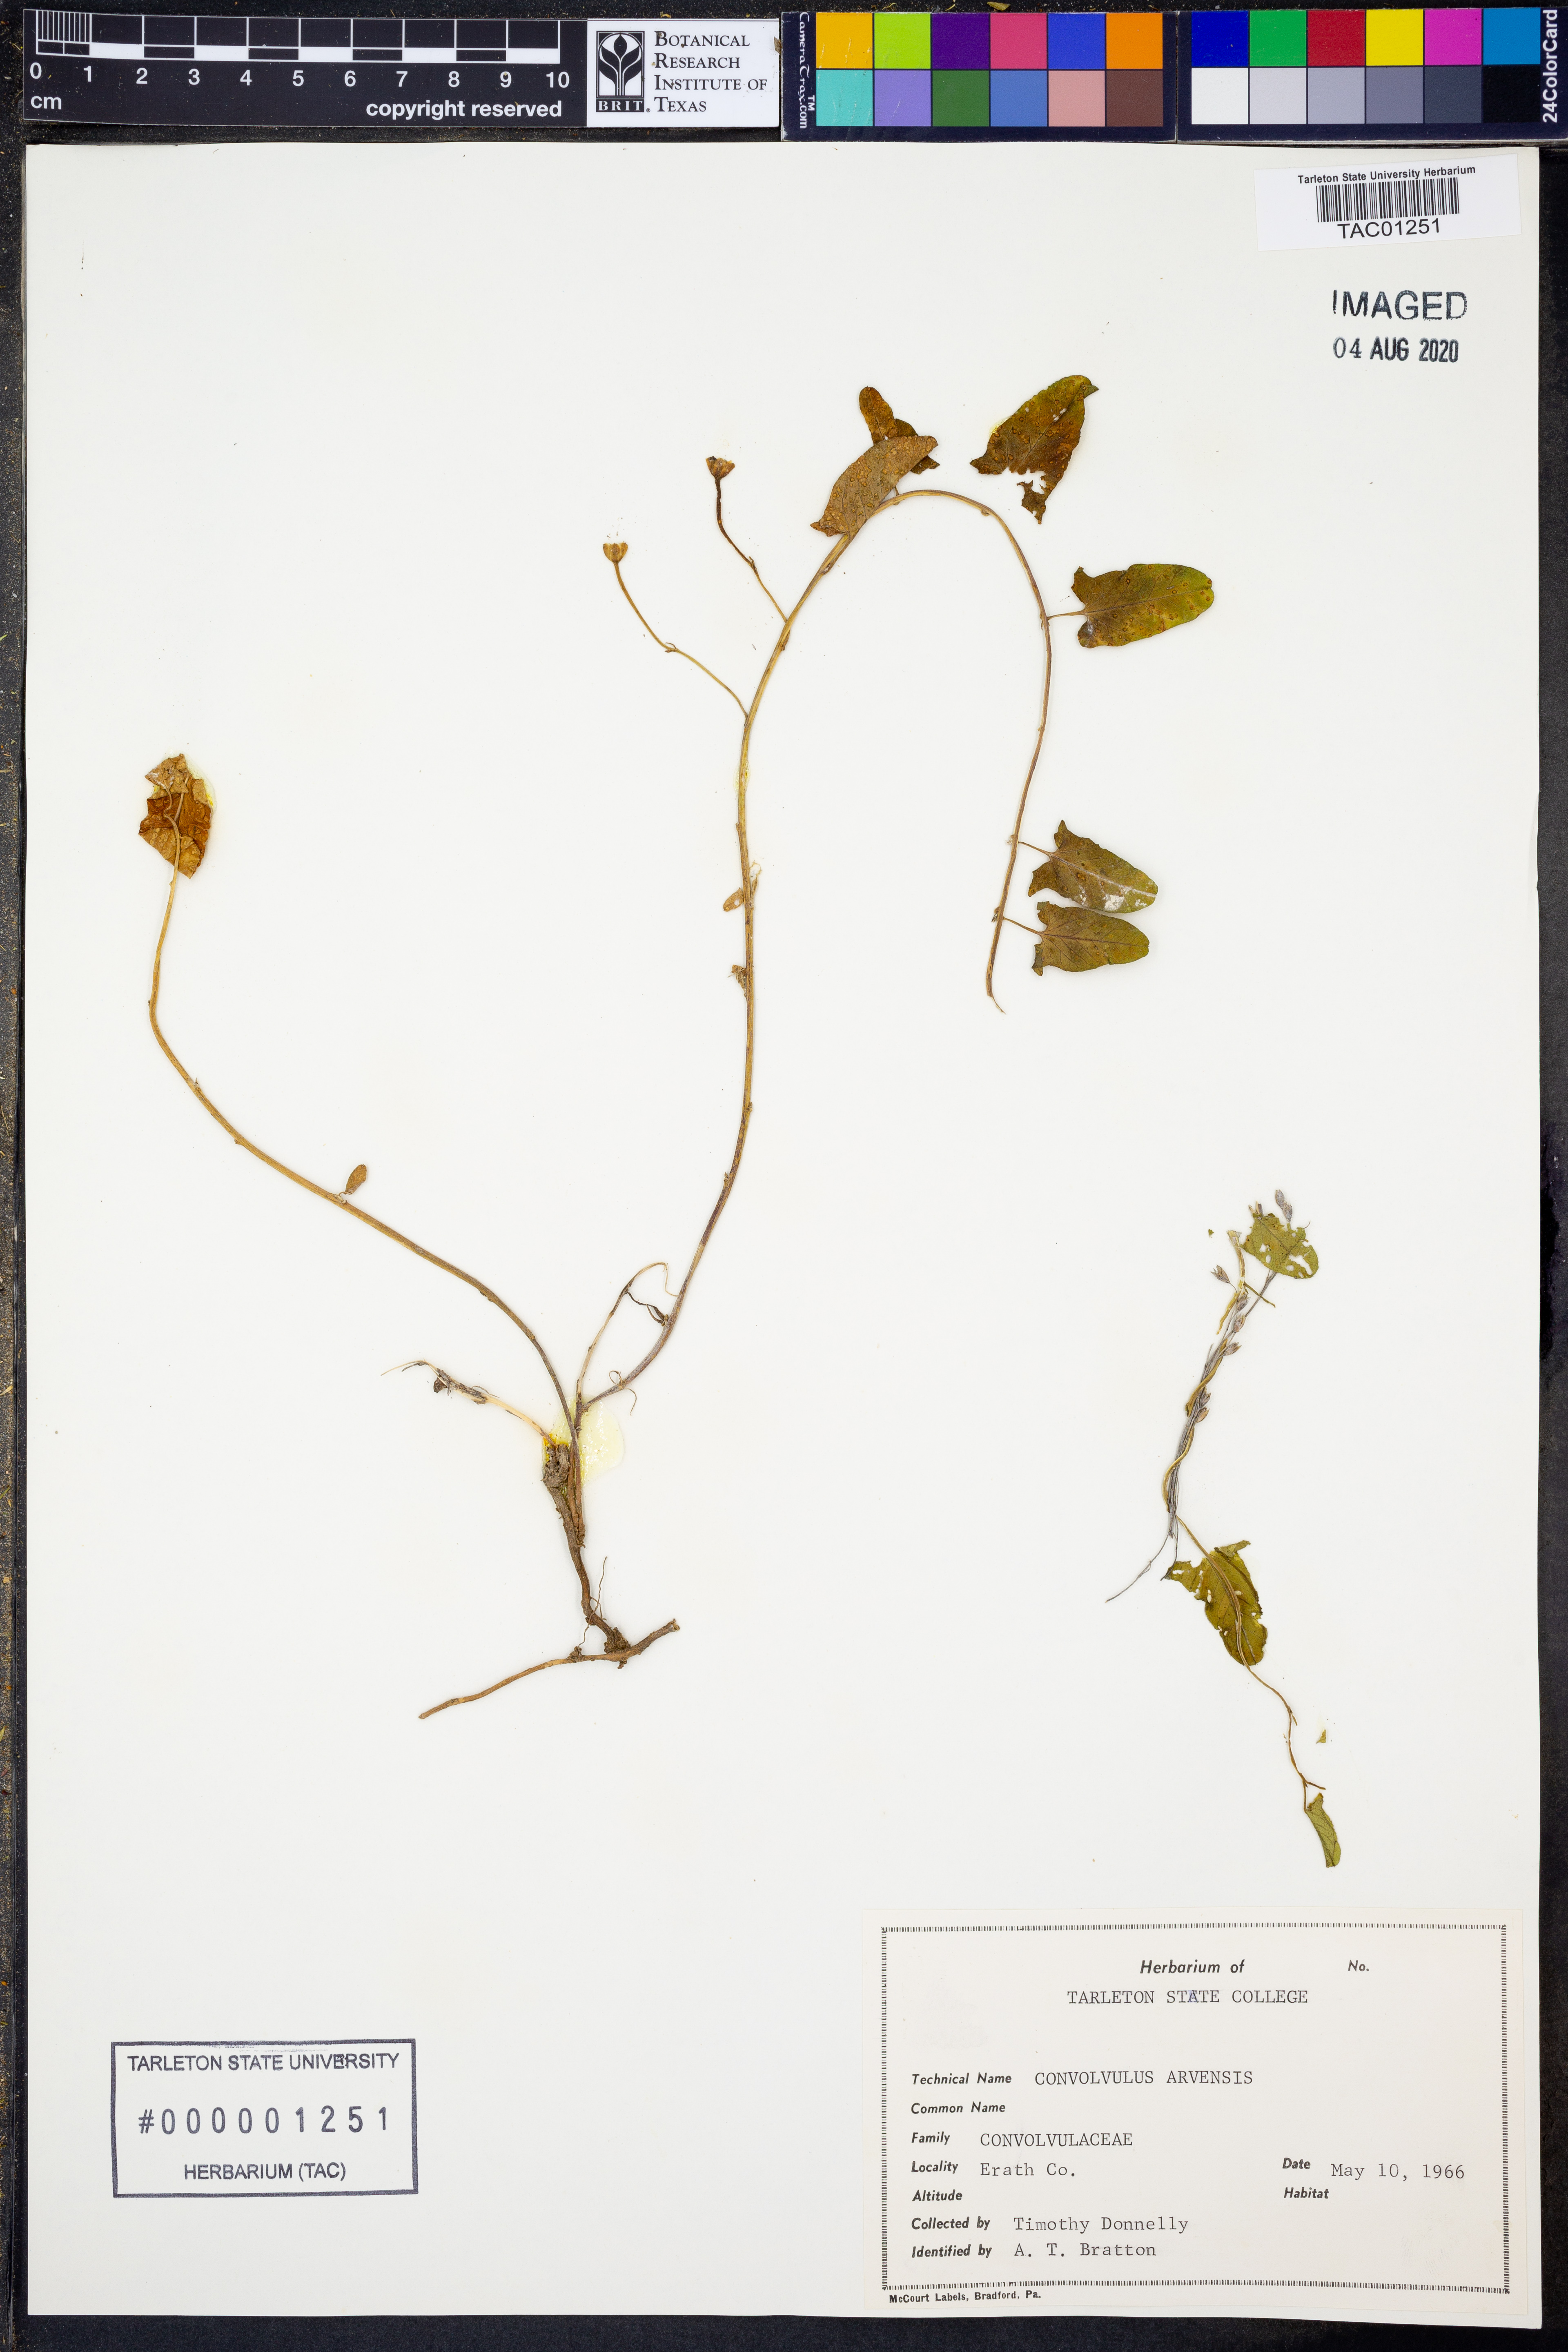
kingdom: Plantae
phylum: Tracheophyta
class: Magnoliopsida
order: Solanales
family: Convolvulaceae
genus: Convolvulus
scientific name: Convolvulus arvensis
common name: Field bindweed
